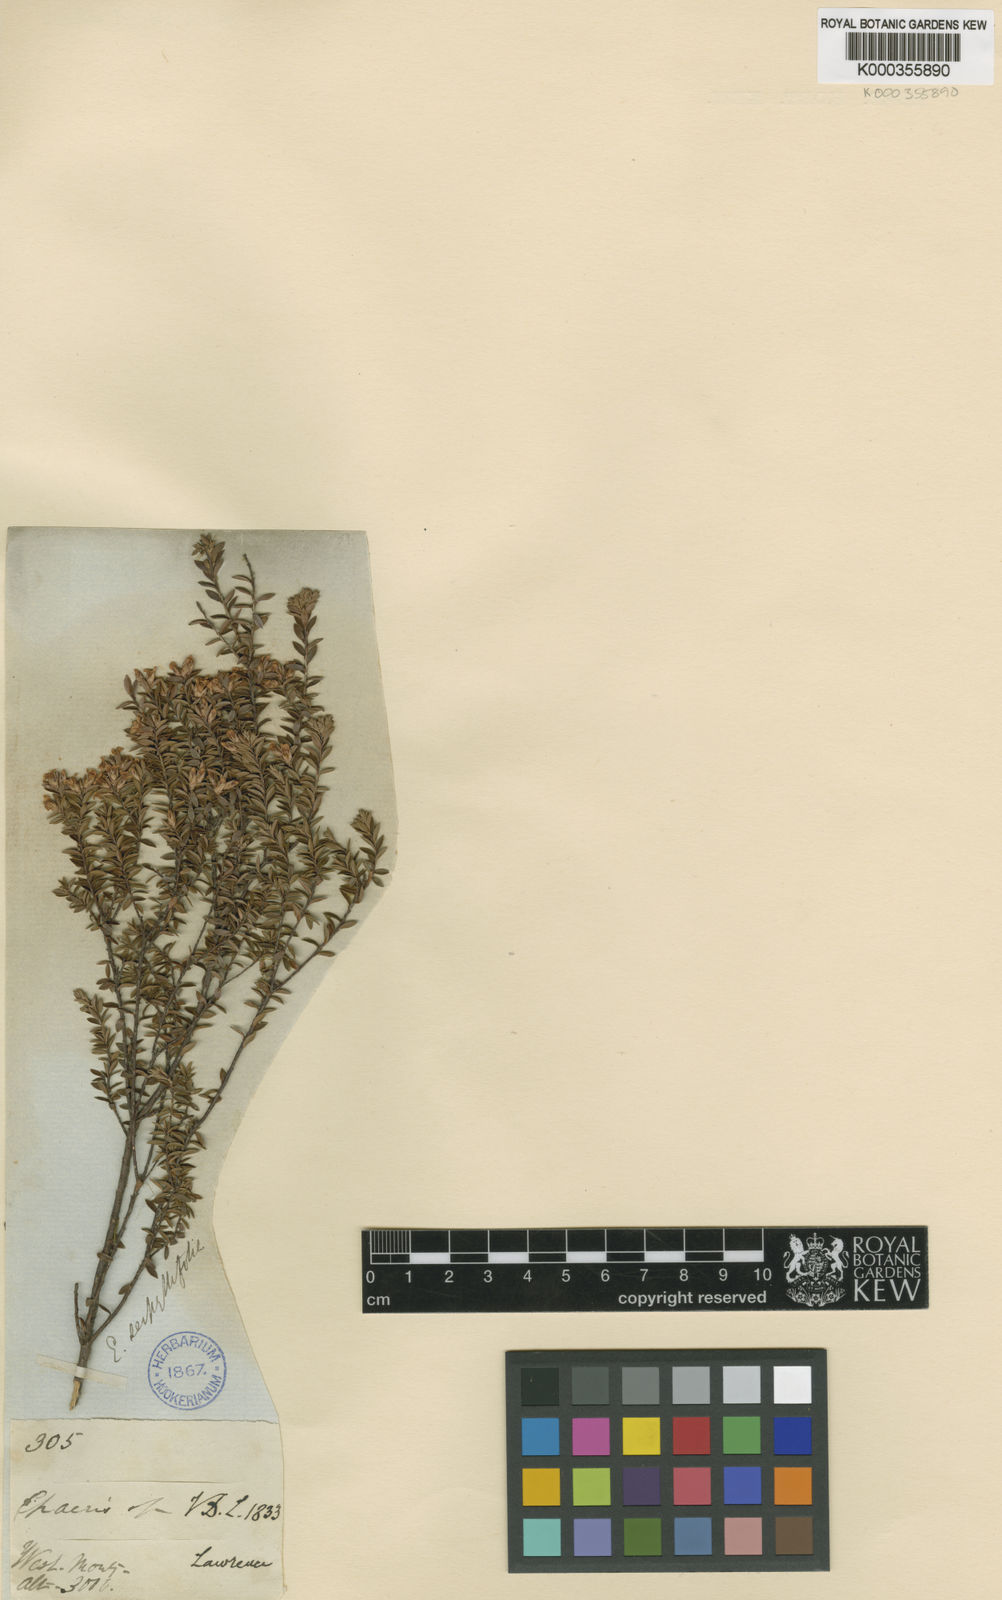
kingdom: Plantae
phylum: Tracheophyta
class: Magnoliopsida
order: Ericales
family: Ericaceae
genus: Epacris
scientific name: Epacris serpyllifolia
